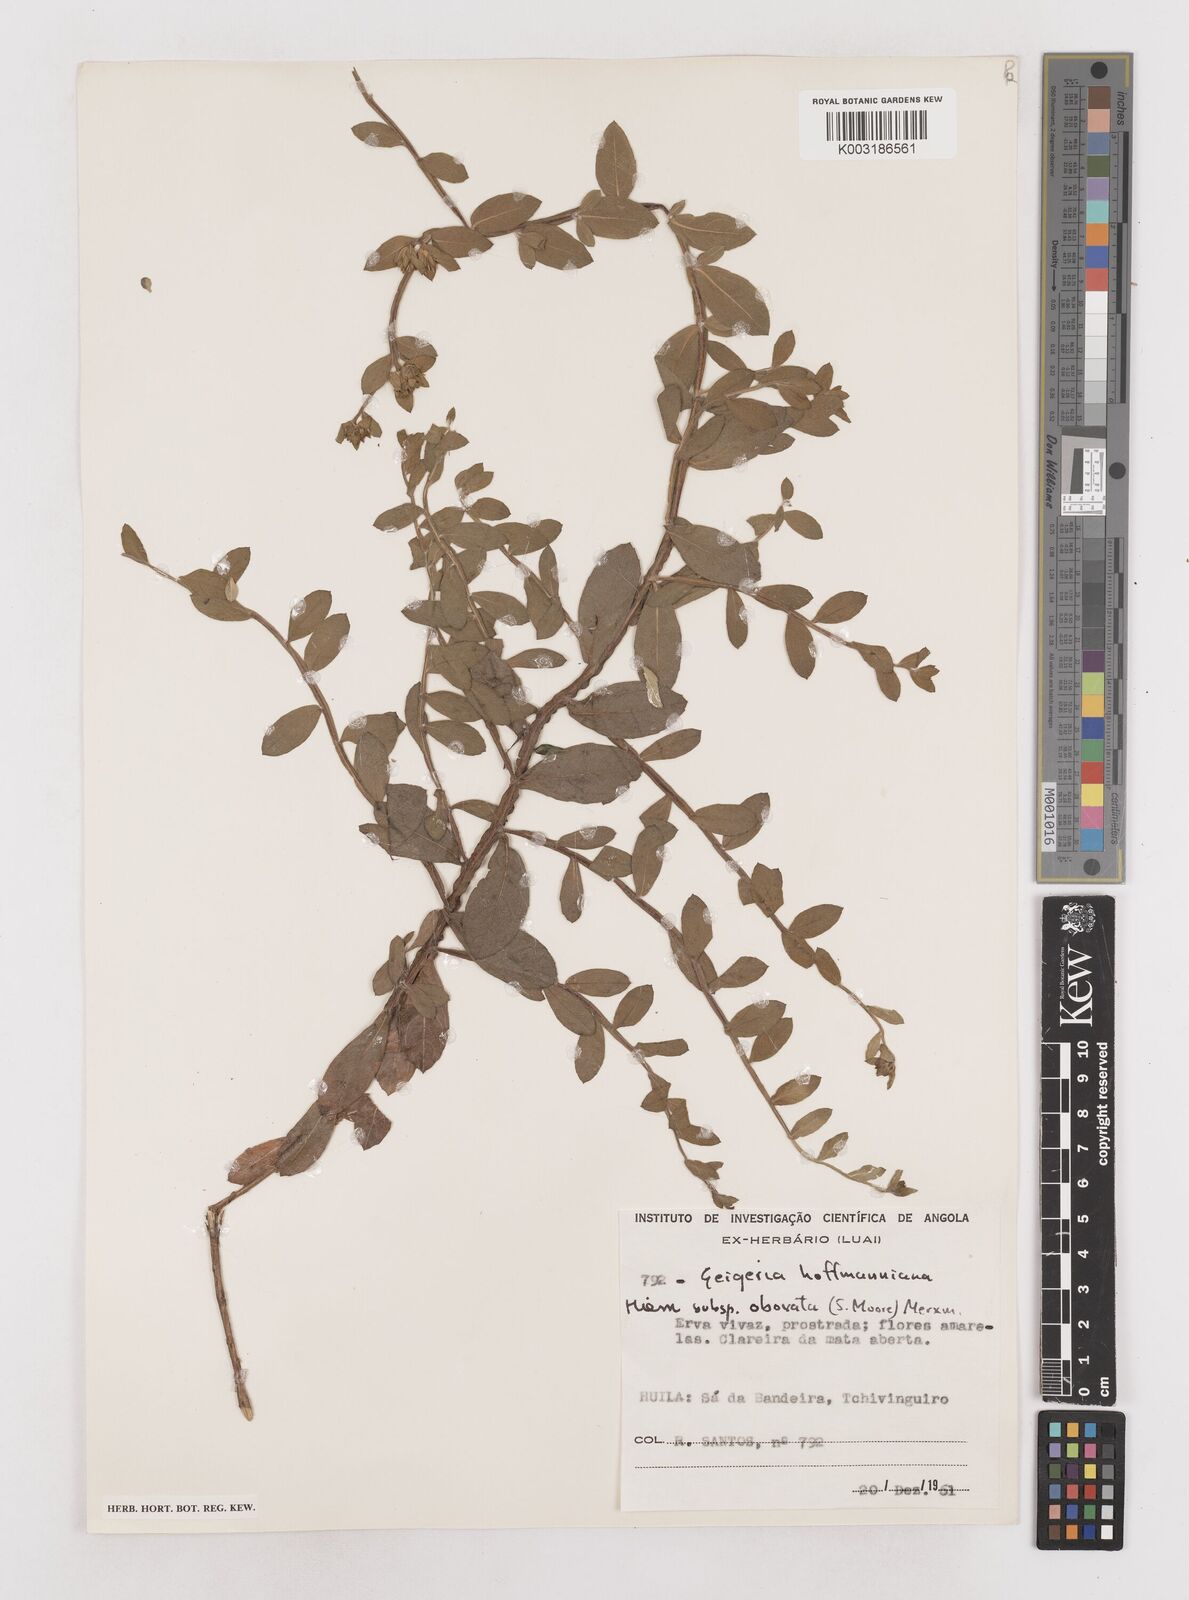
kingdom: Plantae
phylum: Tracheophyta
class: Magnoliopsida
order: Asterales
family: Asteraceae
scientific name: Asteraceae
